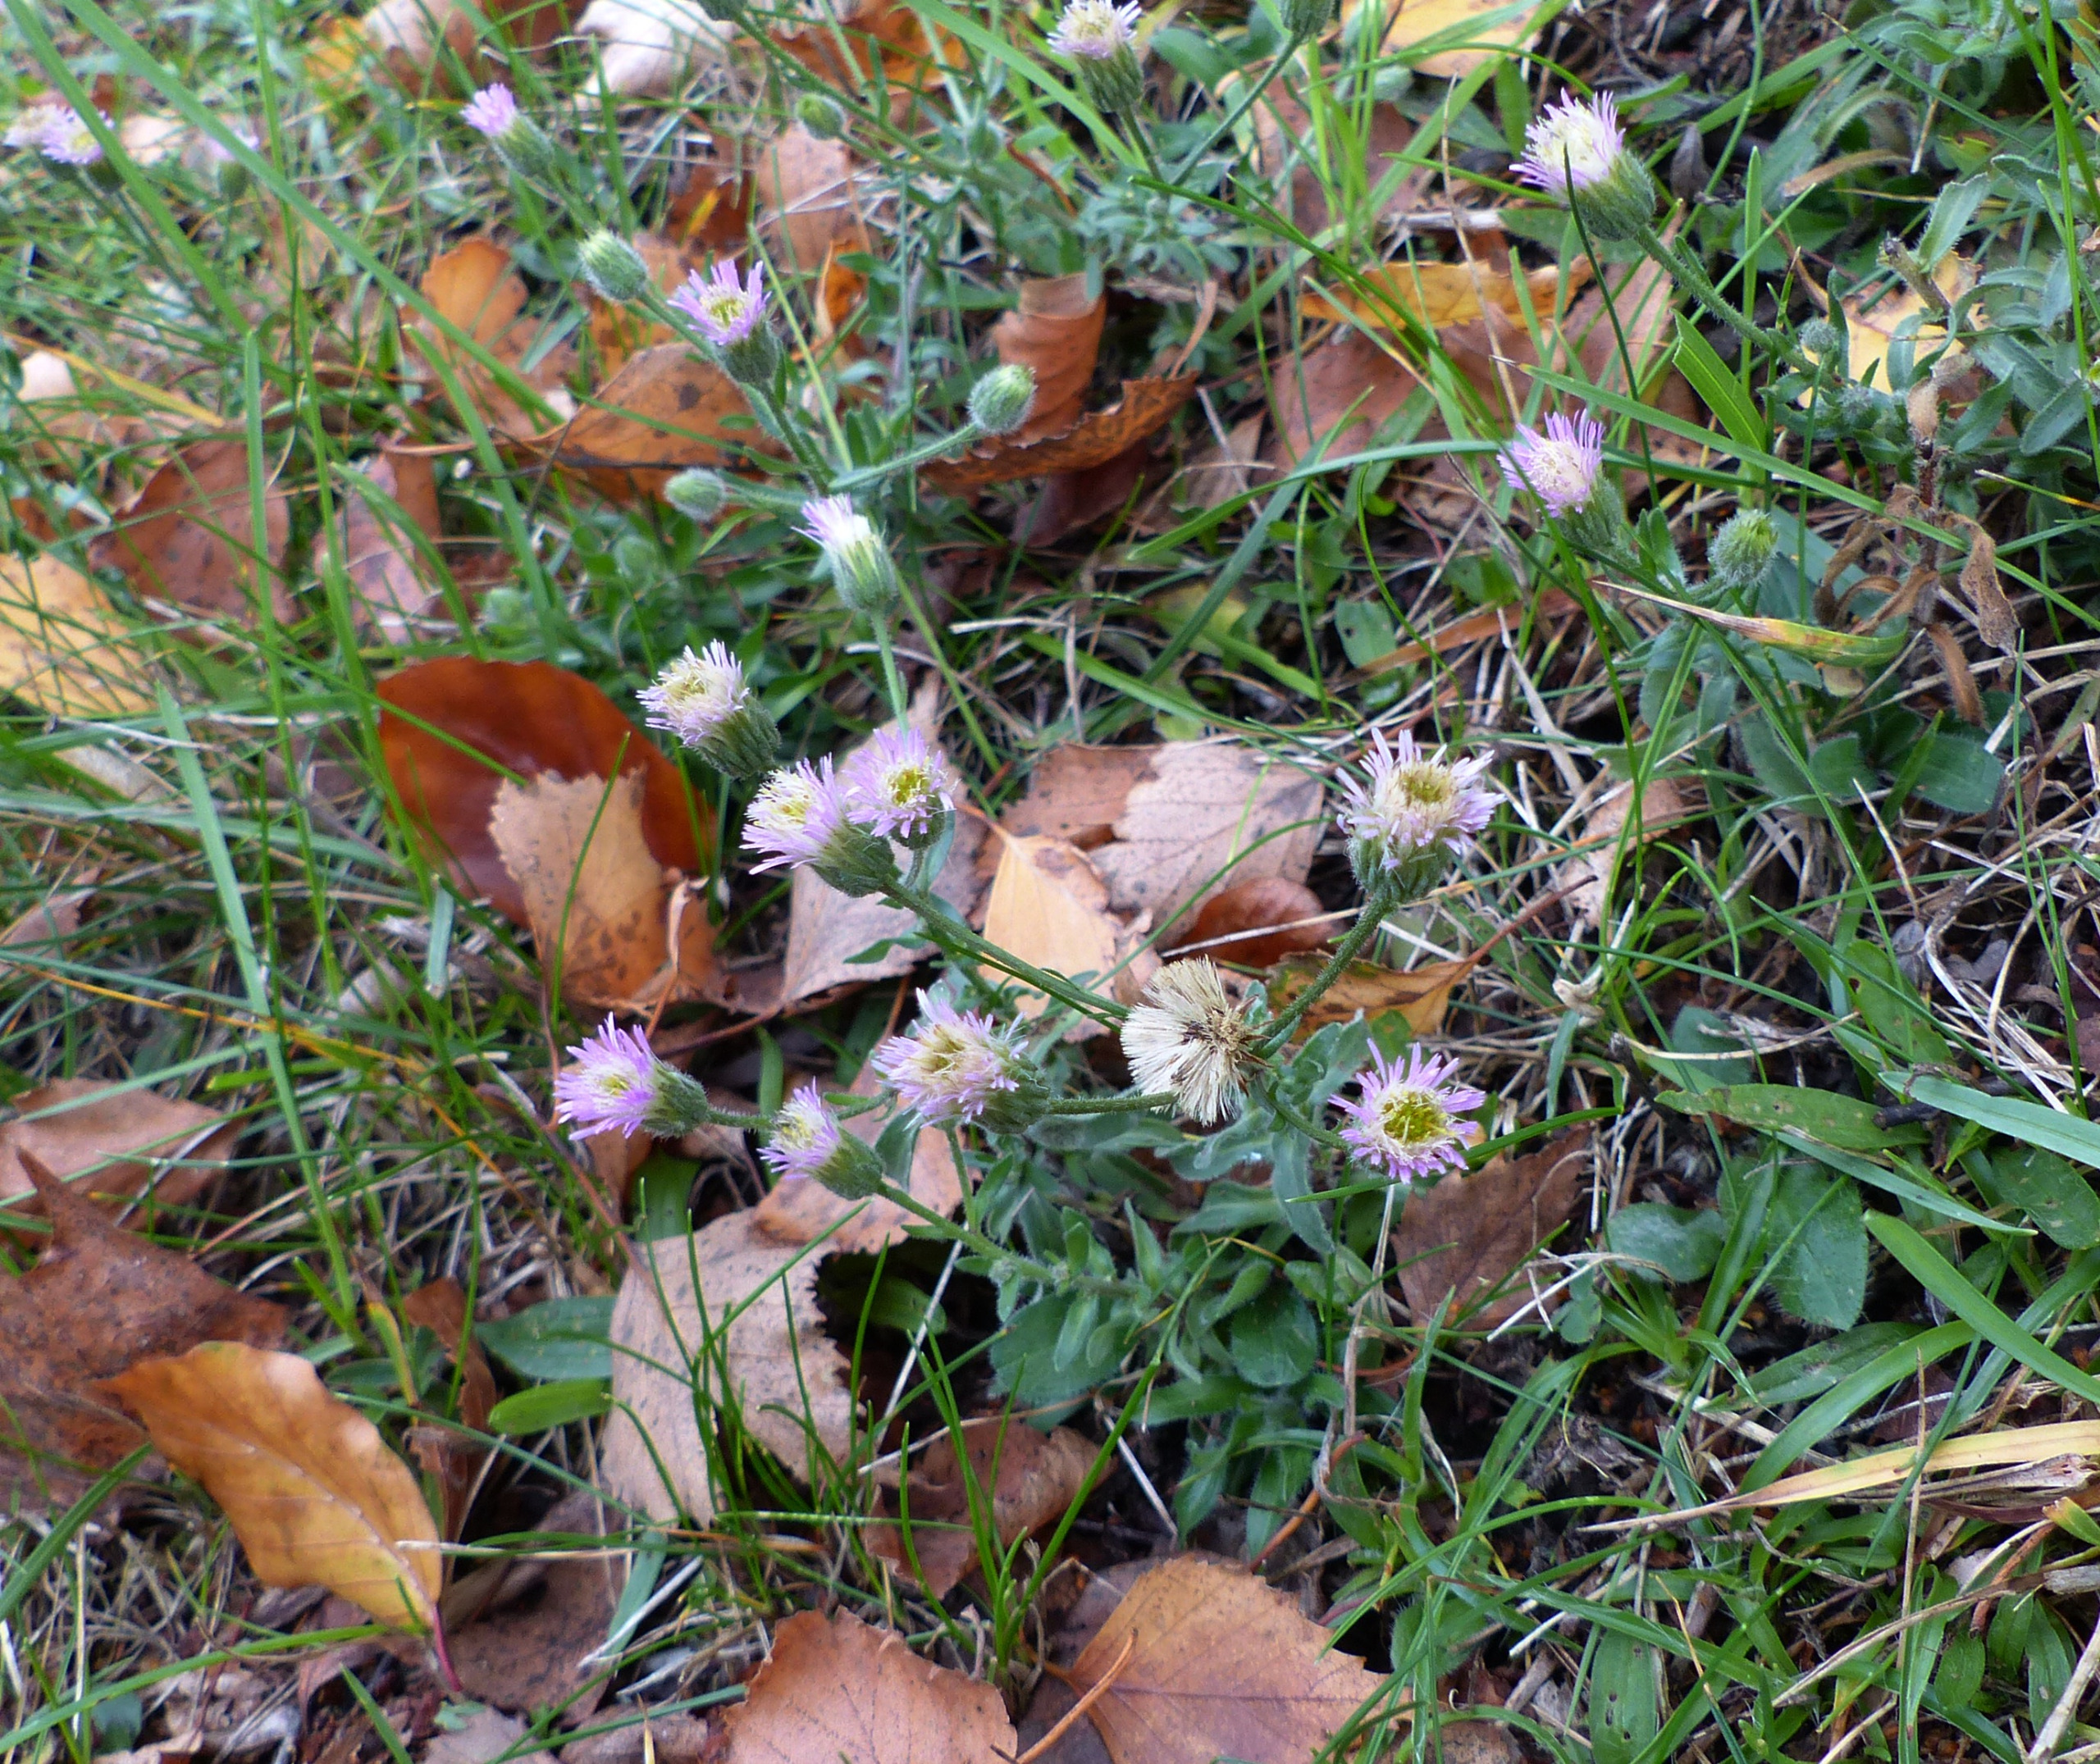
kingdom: Plantae
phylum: Tracheophyta
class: Magnoliopsida
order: Asterales
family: Asteraceae
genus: Erigeron
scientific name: Erigeron muralis
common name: Vreden bakkestjerne
